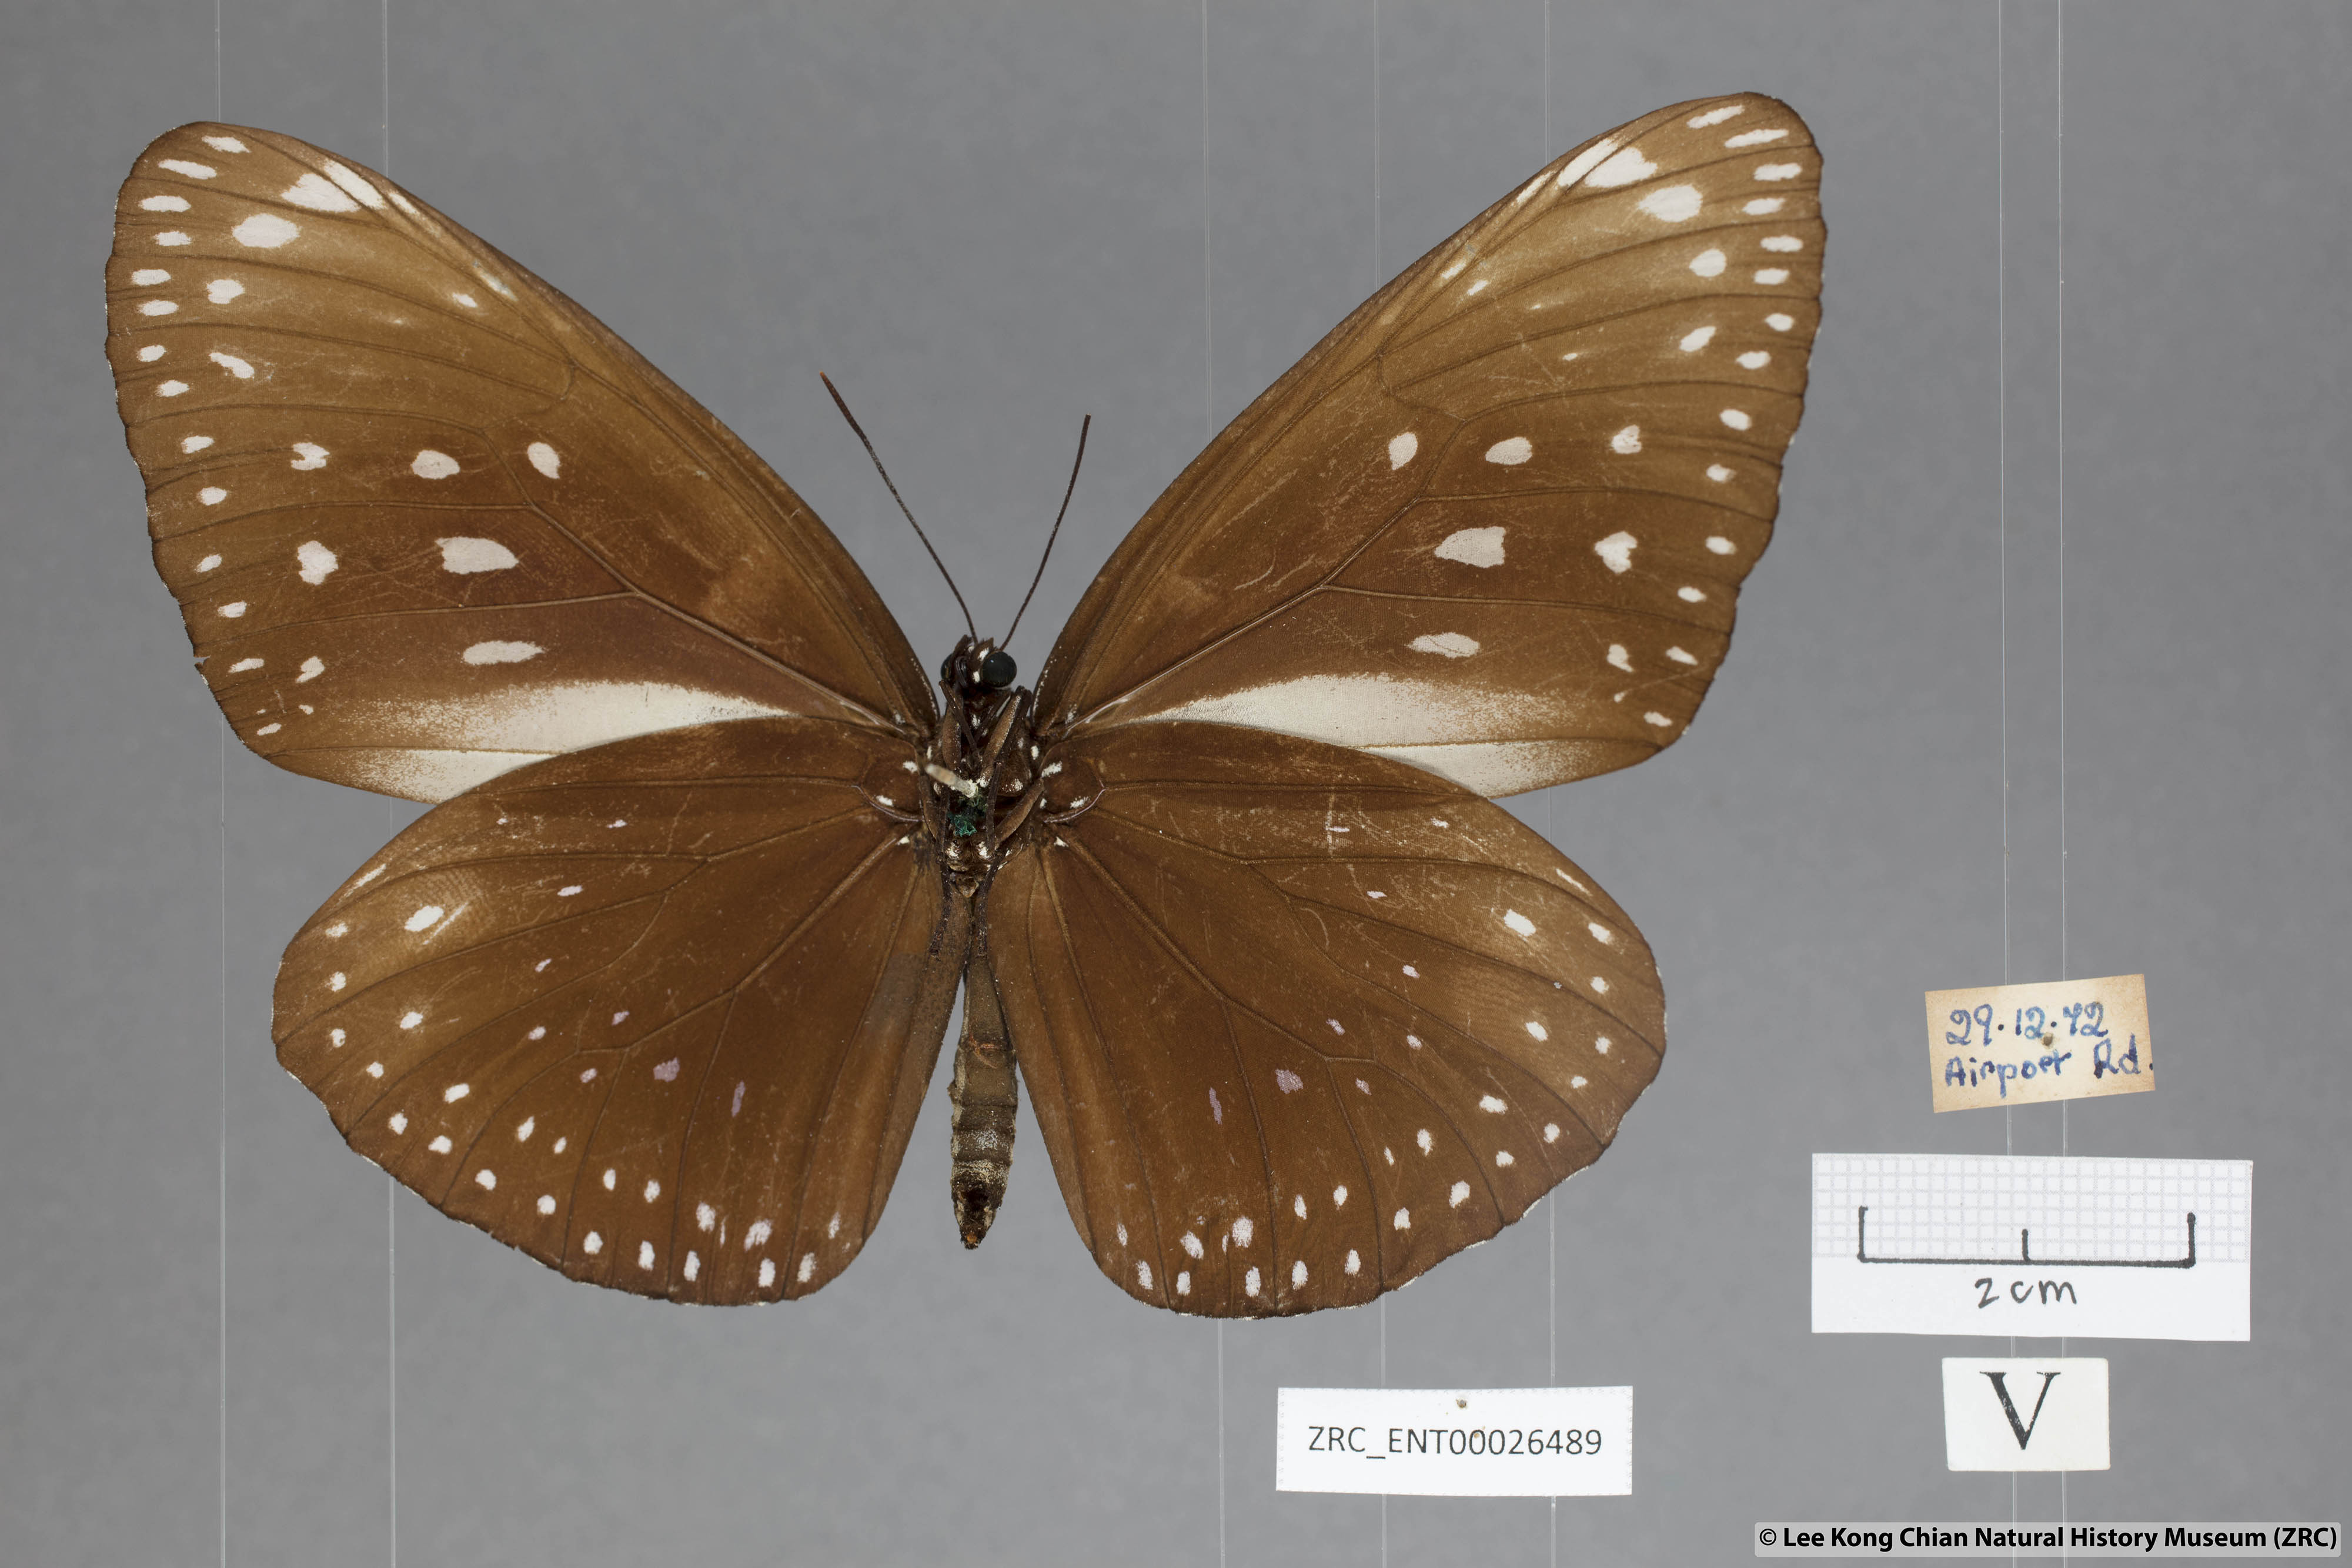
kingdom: Animalia
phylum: Arthropoda
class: Insecta
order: Lepidoptera
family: Nymphalidae
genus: Euploea
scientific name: Euploea phaenareta
